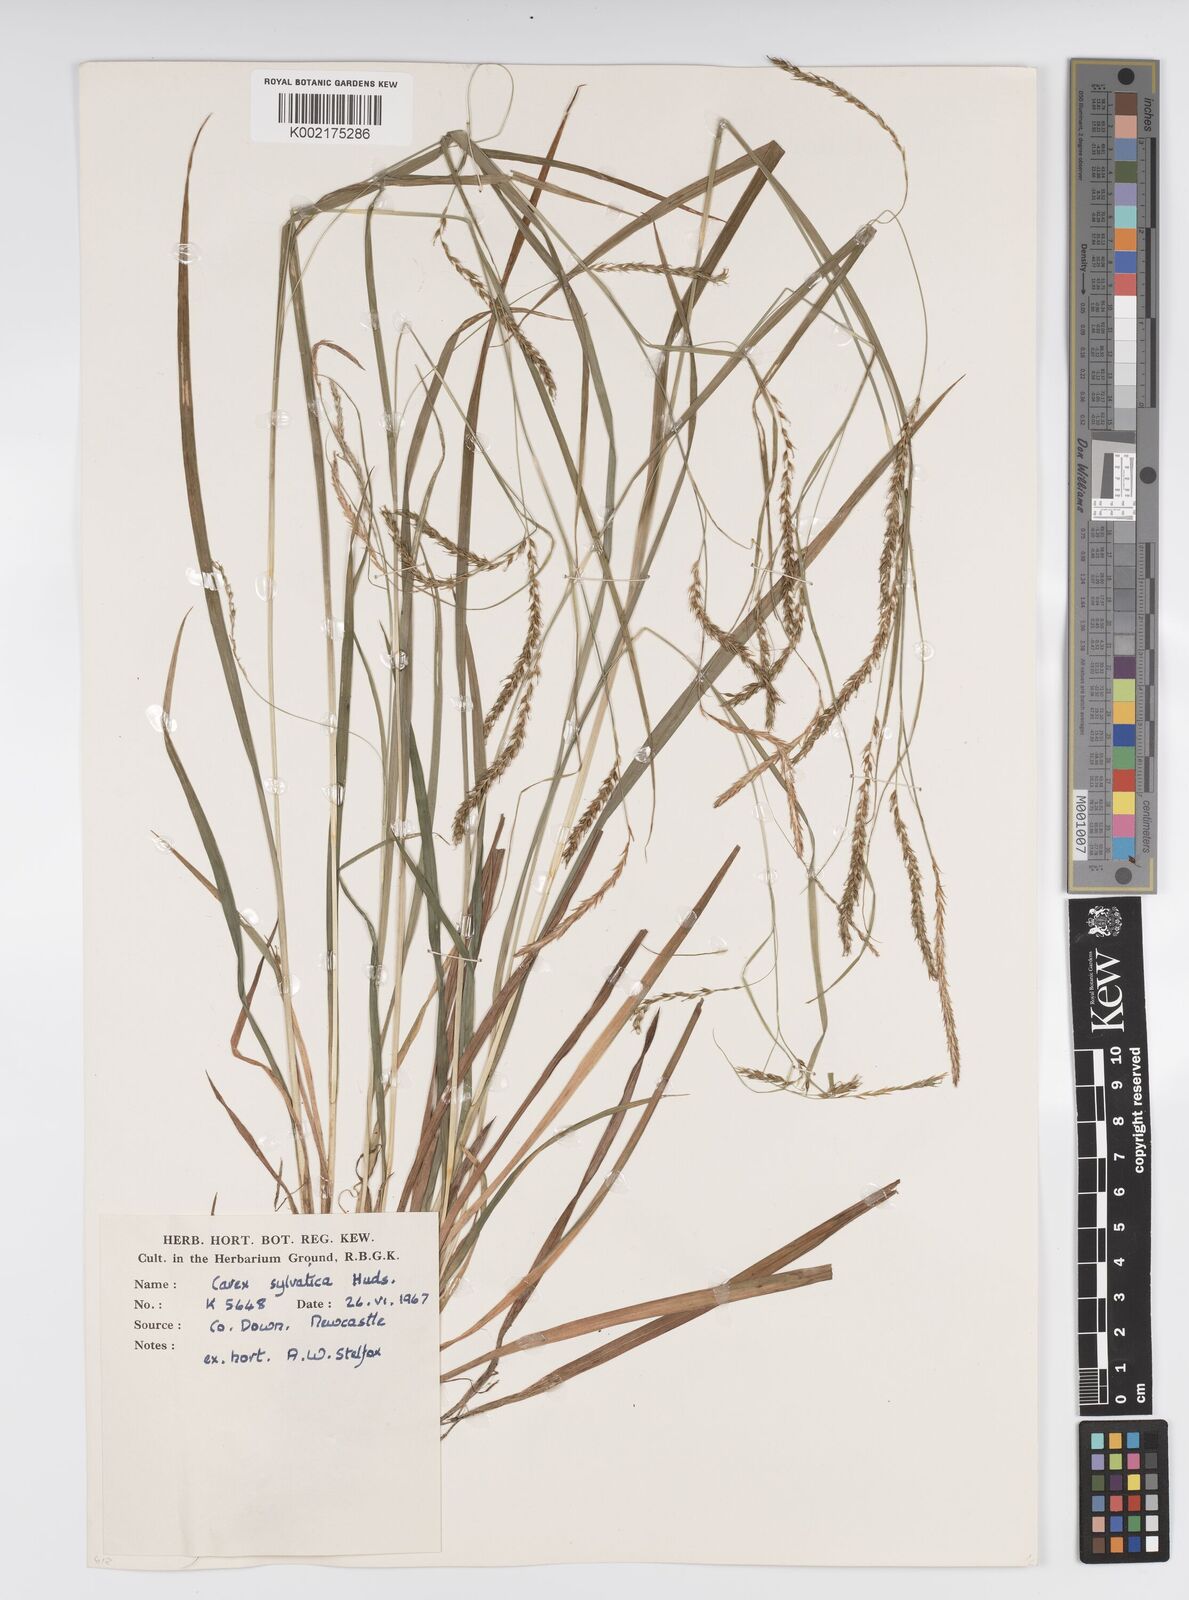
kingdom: Plantae
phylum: Tracheophyta
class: Liliopsida
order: Poales
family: Cyperaceae
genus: Carex
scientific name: Carex sylvatica
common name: Wood-sedge
